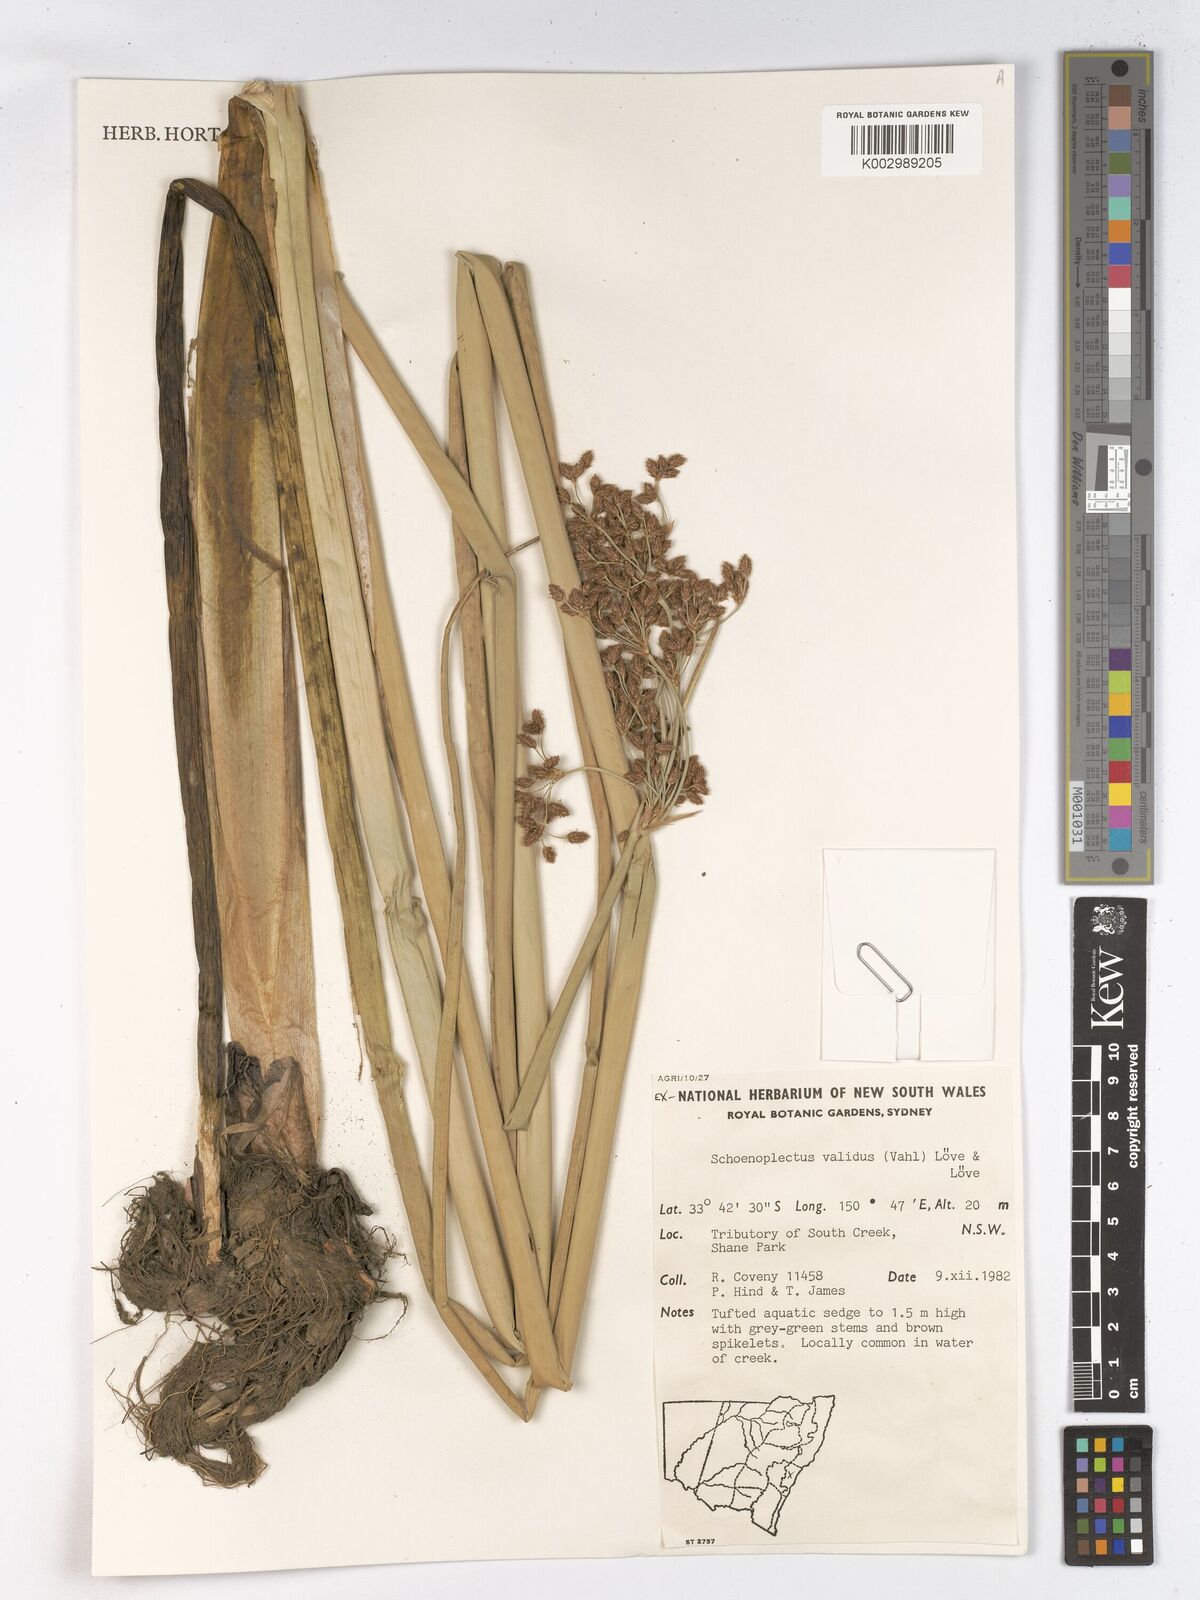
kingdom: Plantae
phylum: Tracheophyta
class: Liliopsida
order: Poales
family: Cyperaceae
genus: Schoenoplectus
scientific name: Schoenoplectus lacustris
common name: Common club-rush
